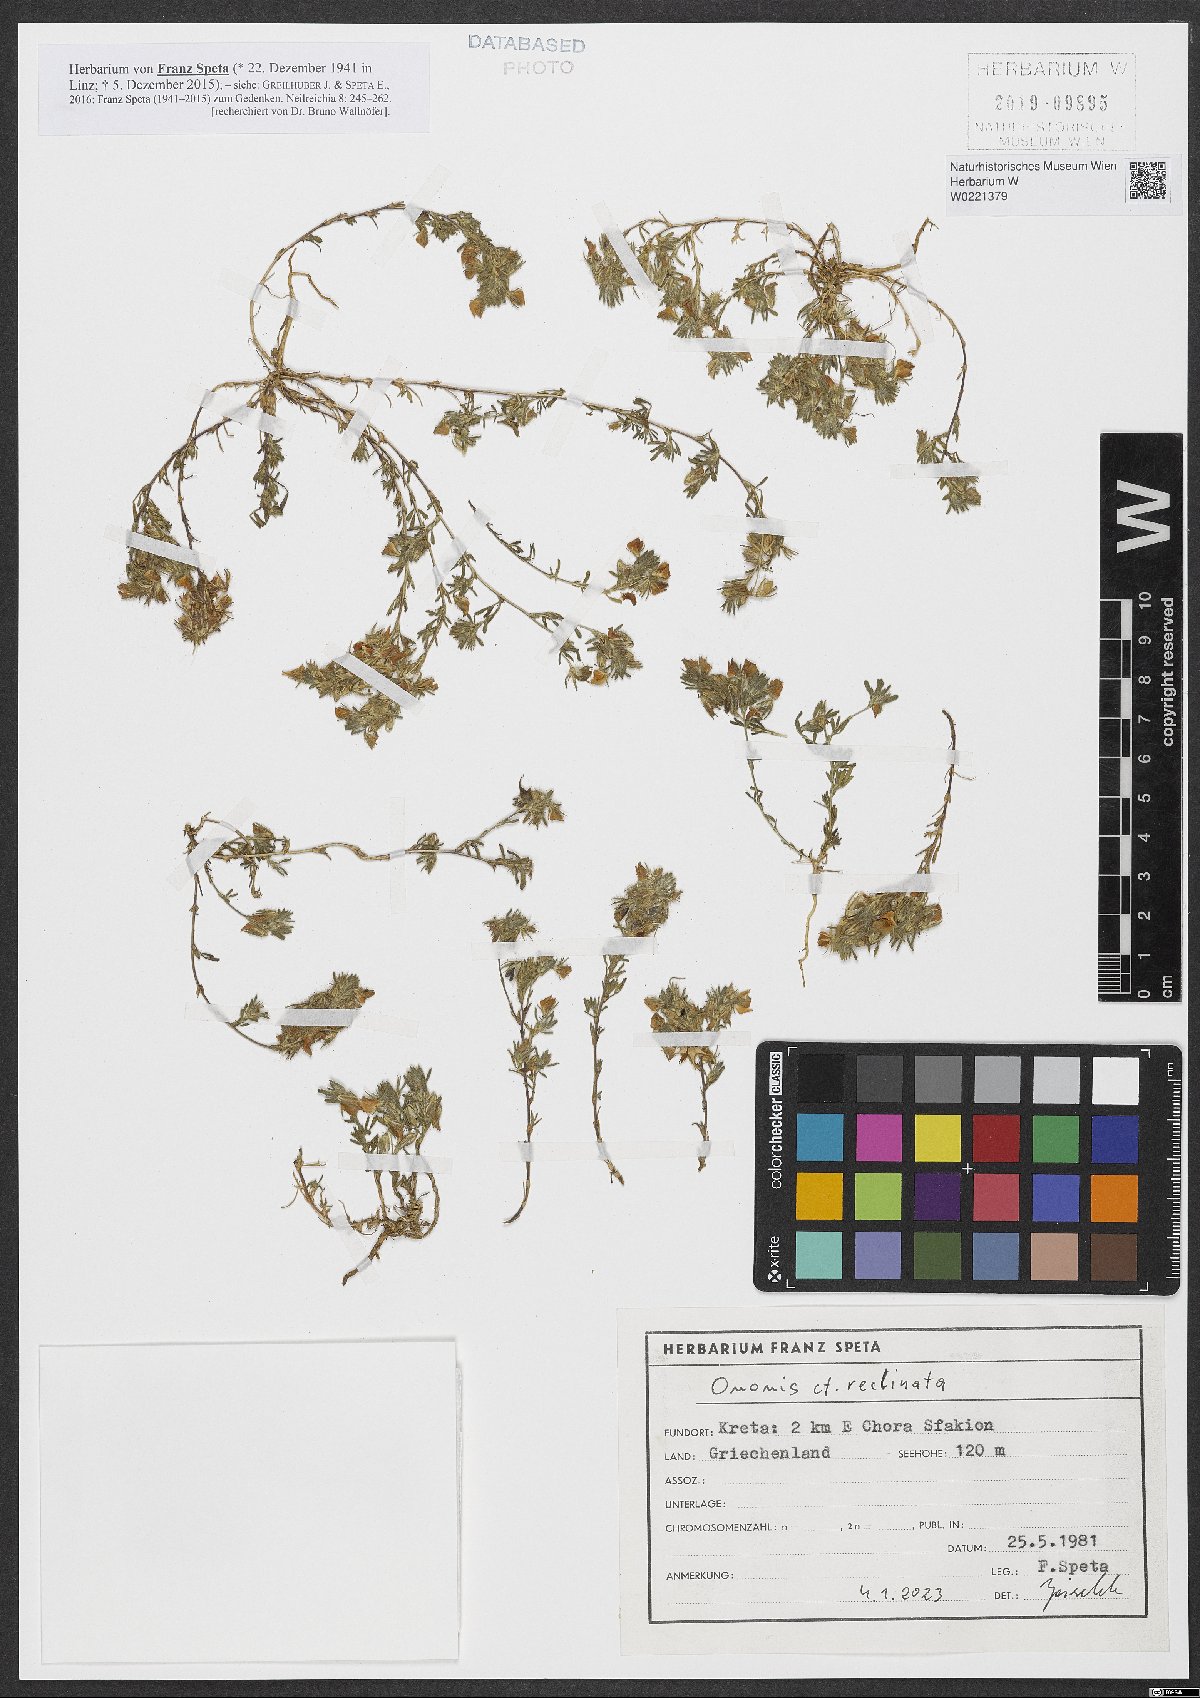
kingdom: Plantae
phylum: Tracheophyta
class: Magnoliopsida
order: Fabales
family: Fabaceae
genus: Ononis
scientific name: Ononis reclinata
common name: Small restharrow
